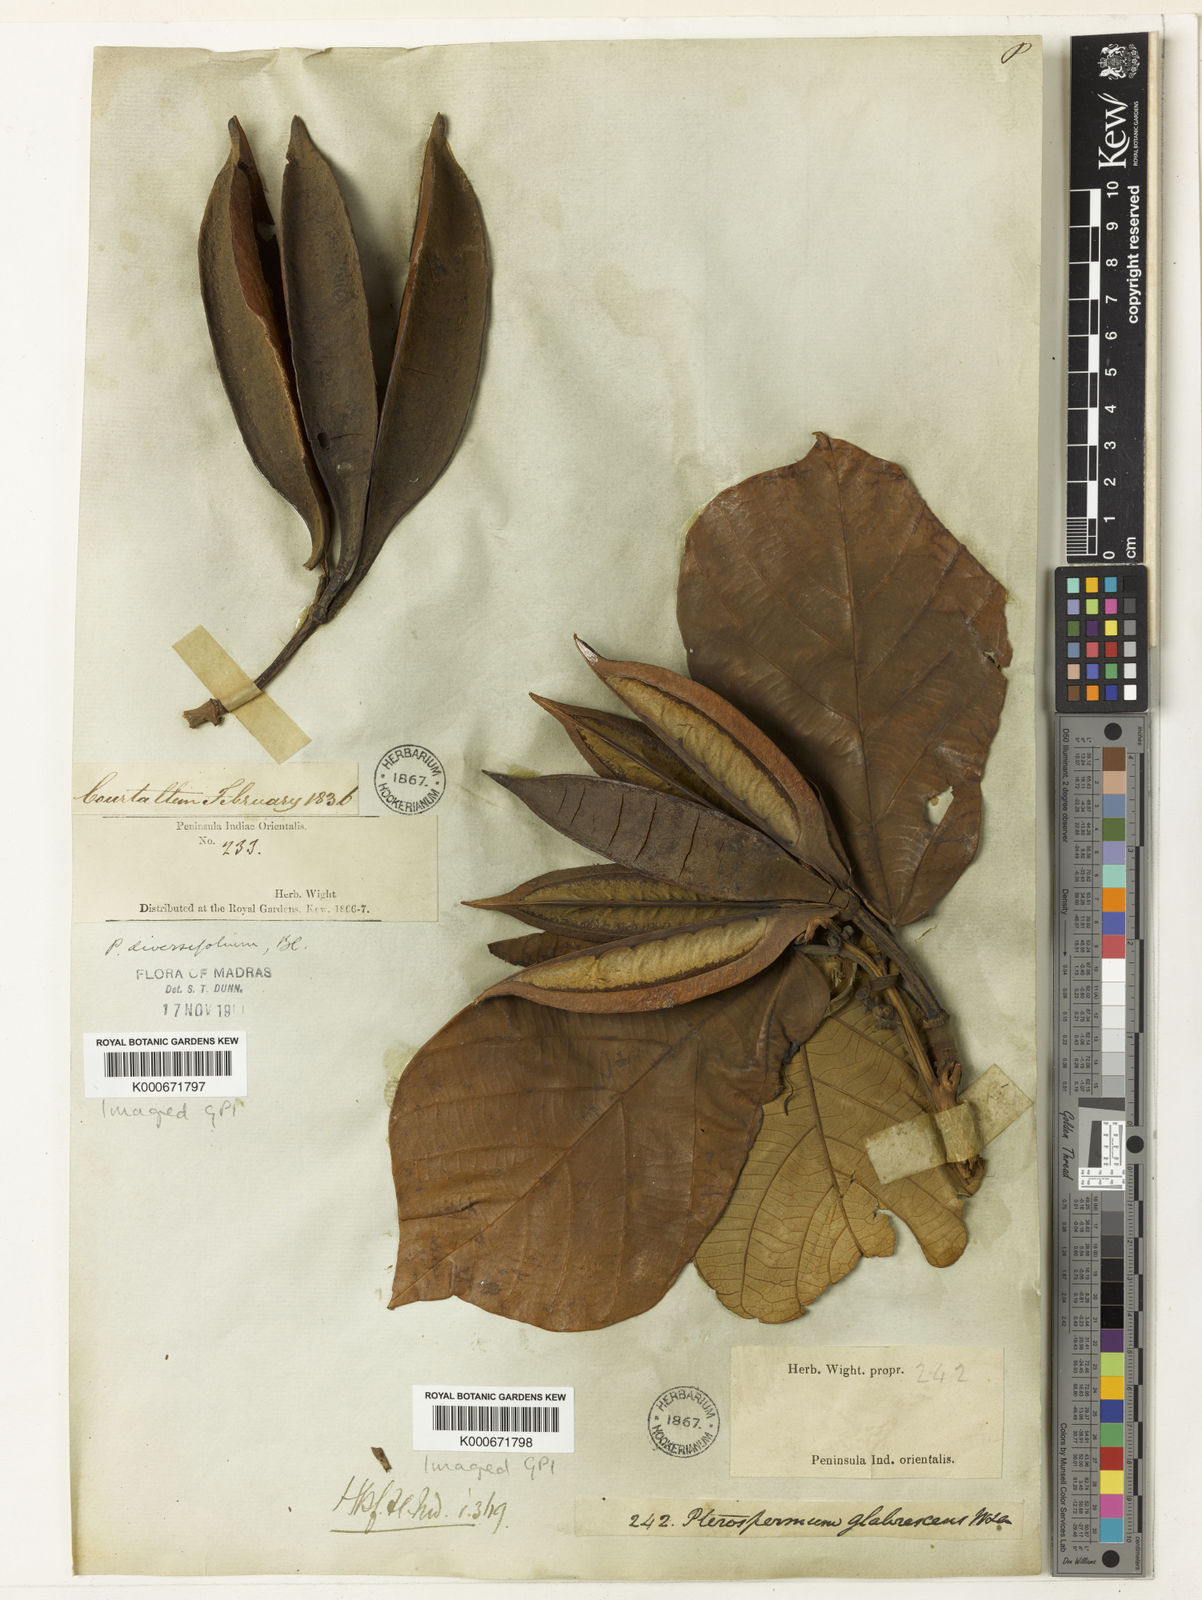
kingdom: Plantae
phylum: Tracheophyta
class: Magnoliopsida
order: Malvales
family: Malvaceae
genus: Pterospermum
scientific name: Pterospermum diversifolium
